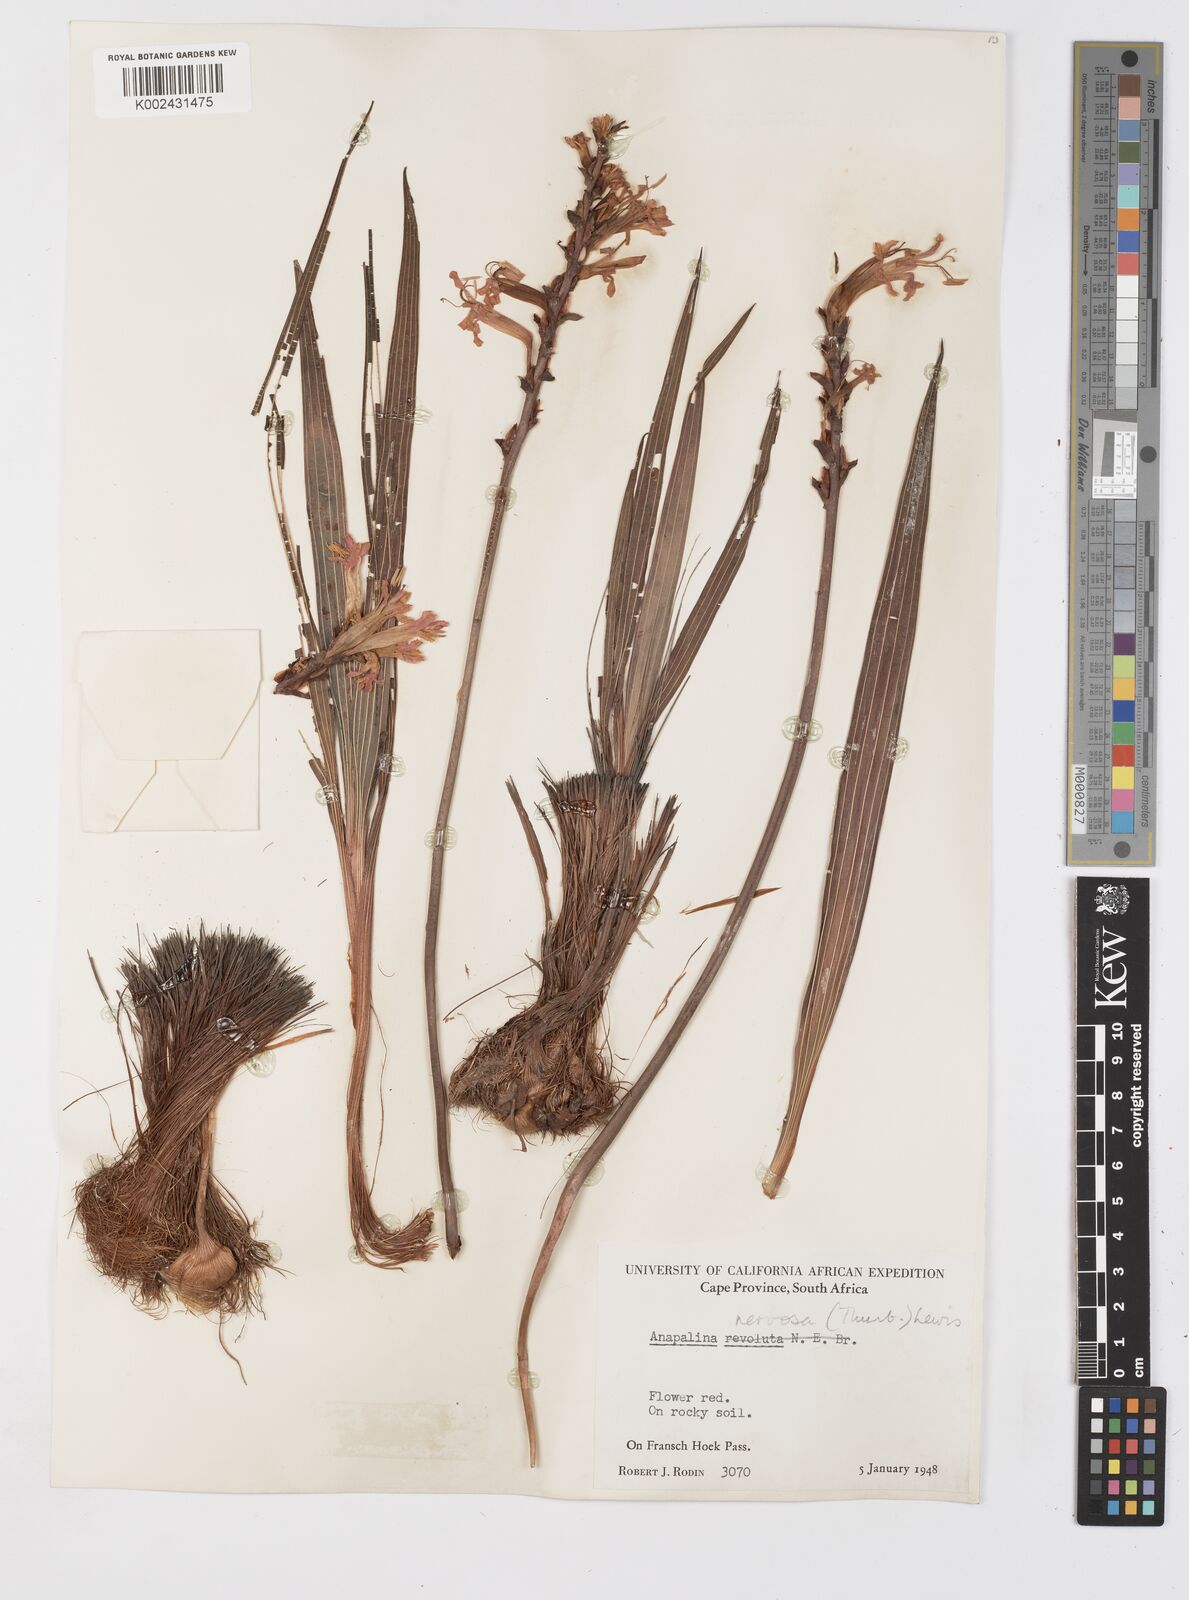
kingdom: Plantae
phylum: Tracheophyta
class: Liliopsida
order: Asparagales
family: Iridaceae
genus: Tritoniopsis
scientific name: Tritoniopsis nervosa
